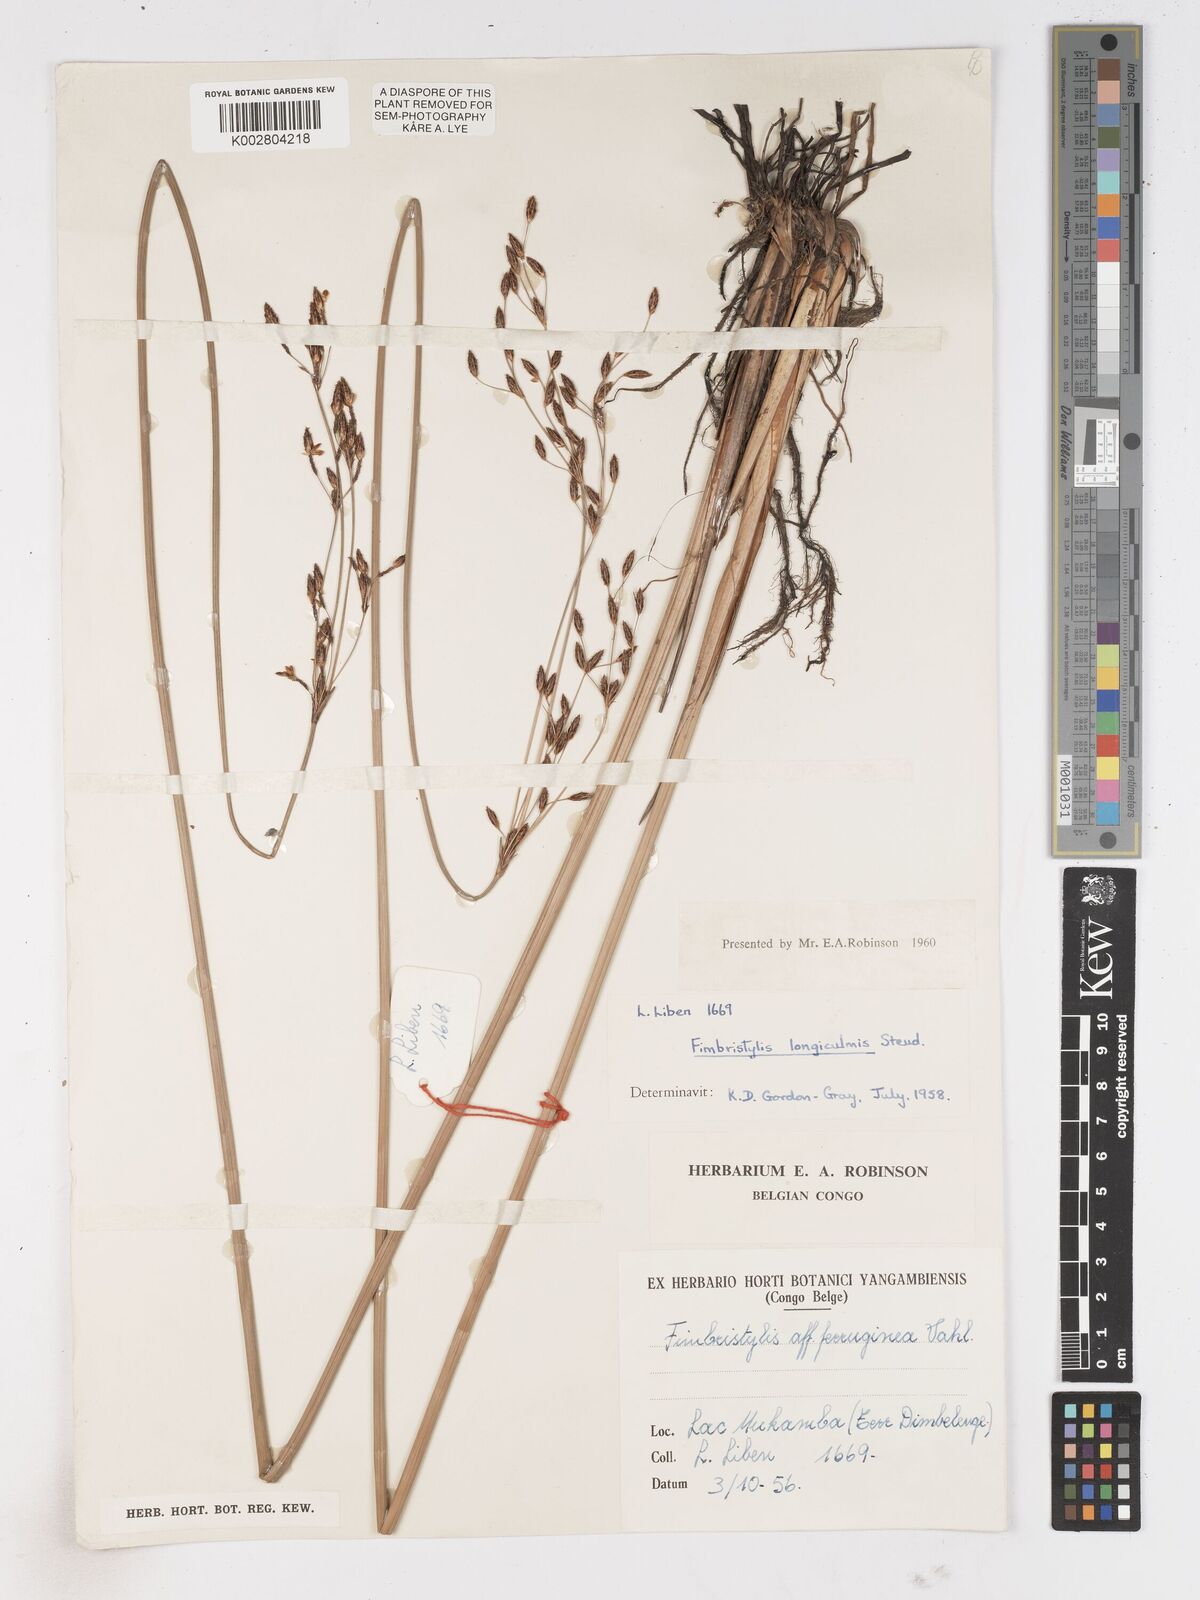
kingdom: Plantae
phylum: Tracheophyta
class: Liliopsida
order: Poales
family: Cyperaceae
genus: Fimbristylis
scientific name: Fimbristylis bivalvis
